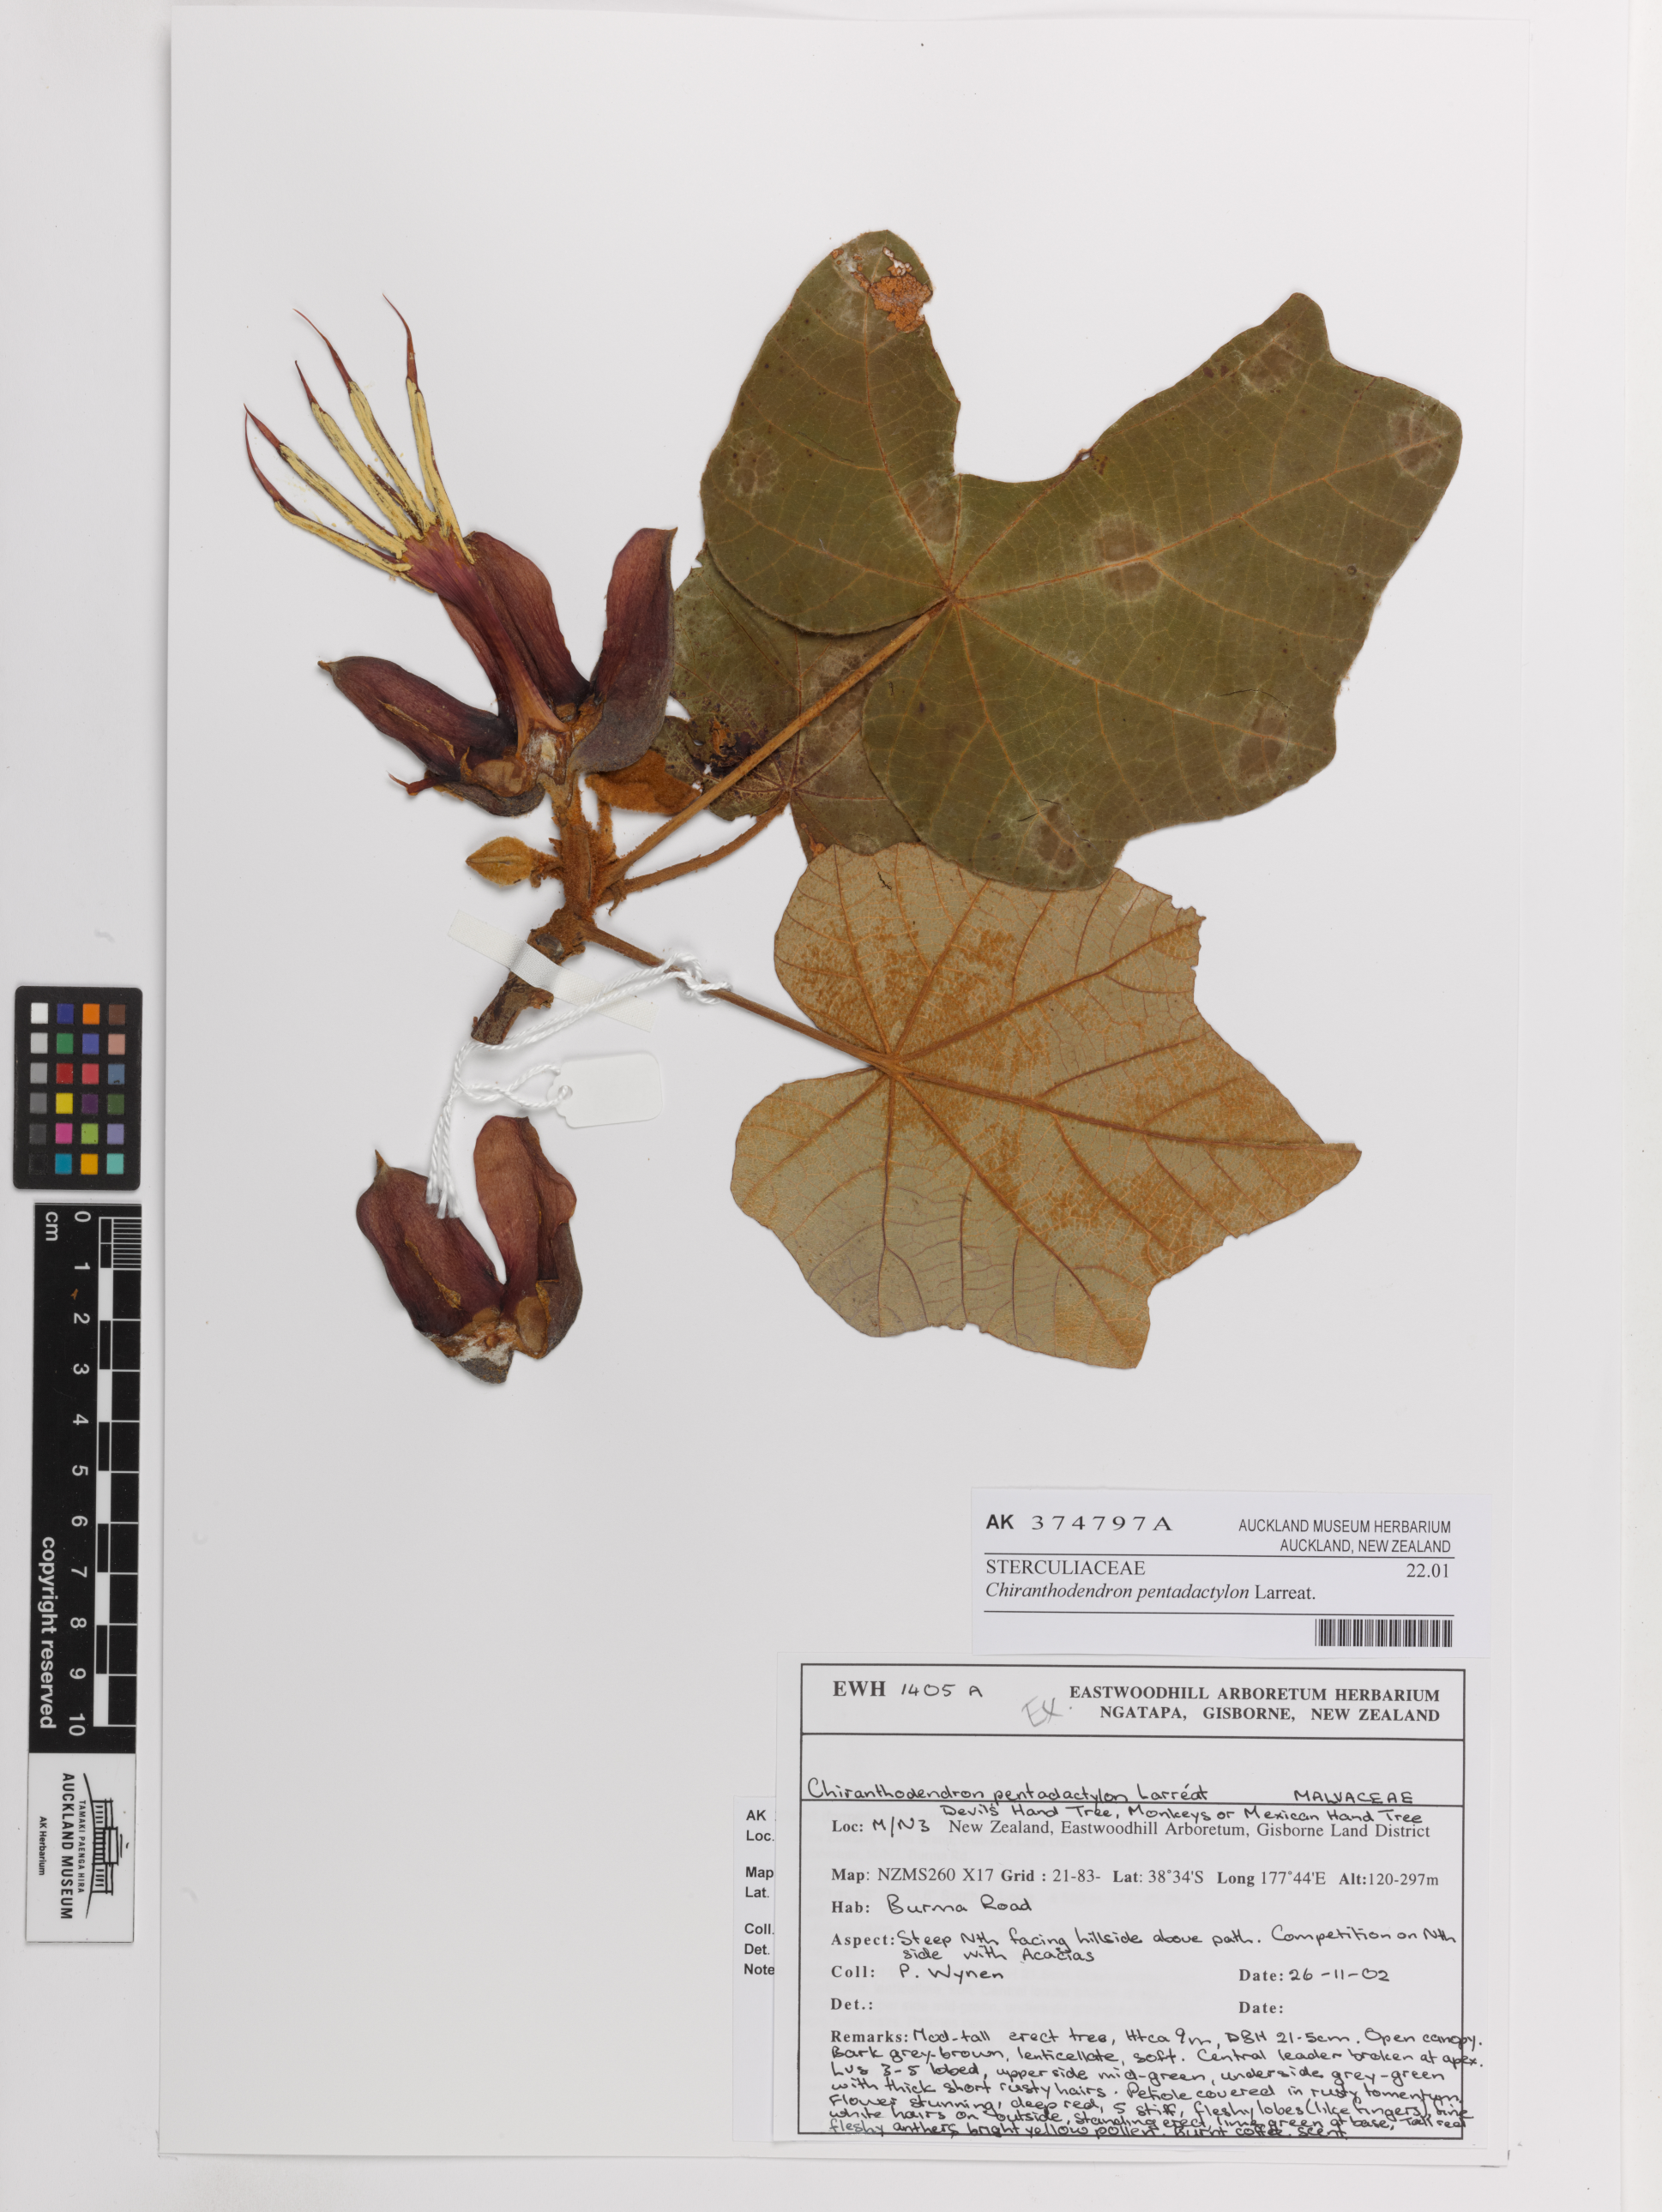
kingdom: Plantae
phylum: Tracheophyta
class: Magnoliopsida
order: Malvales
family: Malvaceae
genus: Chiranthodendron
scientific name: Chiranthodendron pentadactylon
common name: Mexican-hat-plant
